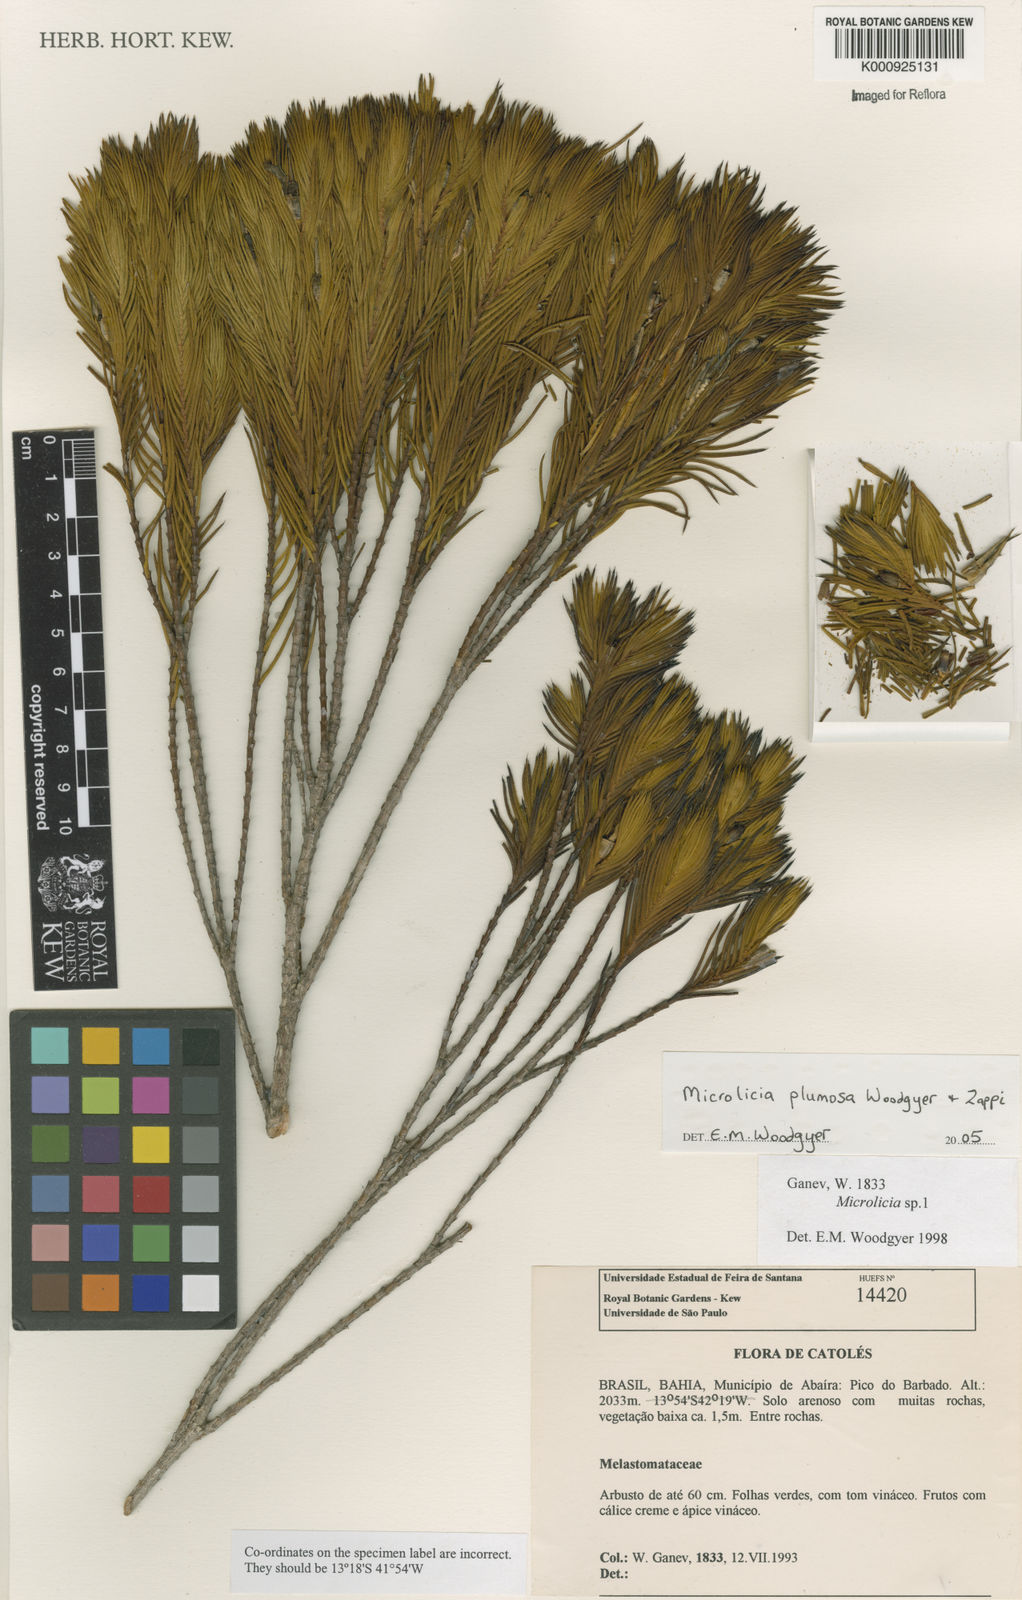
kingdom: Plantae
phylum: Tracheophyta
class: Magnoliopsida
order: Myrtales
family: Melastomataceae
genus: Microlicia
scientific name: Microlicia plumosa
